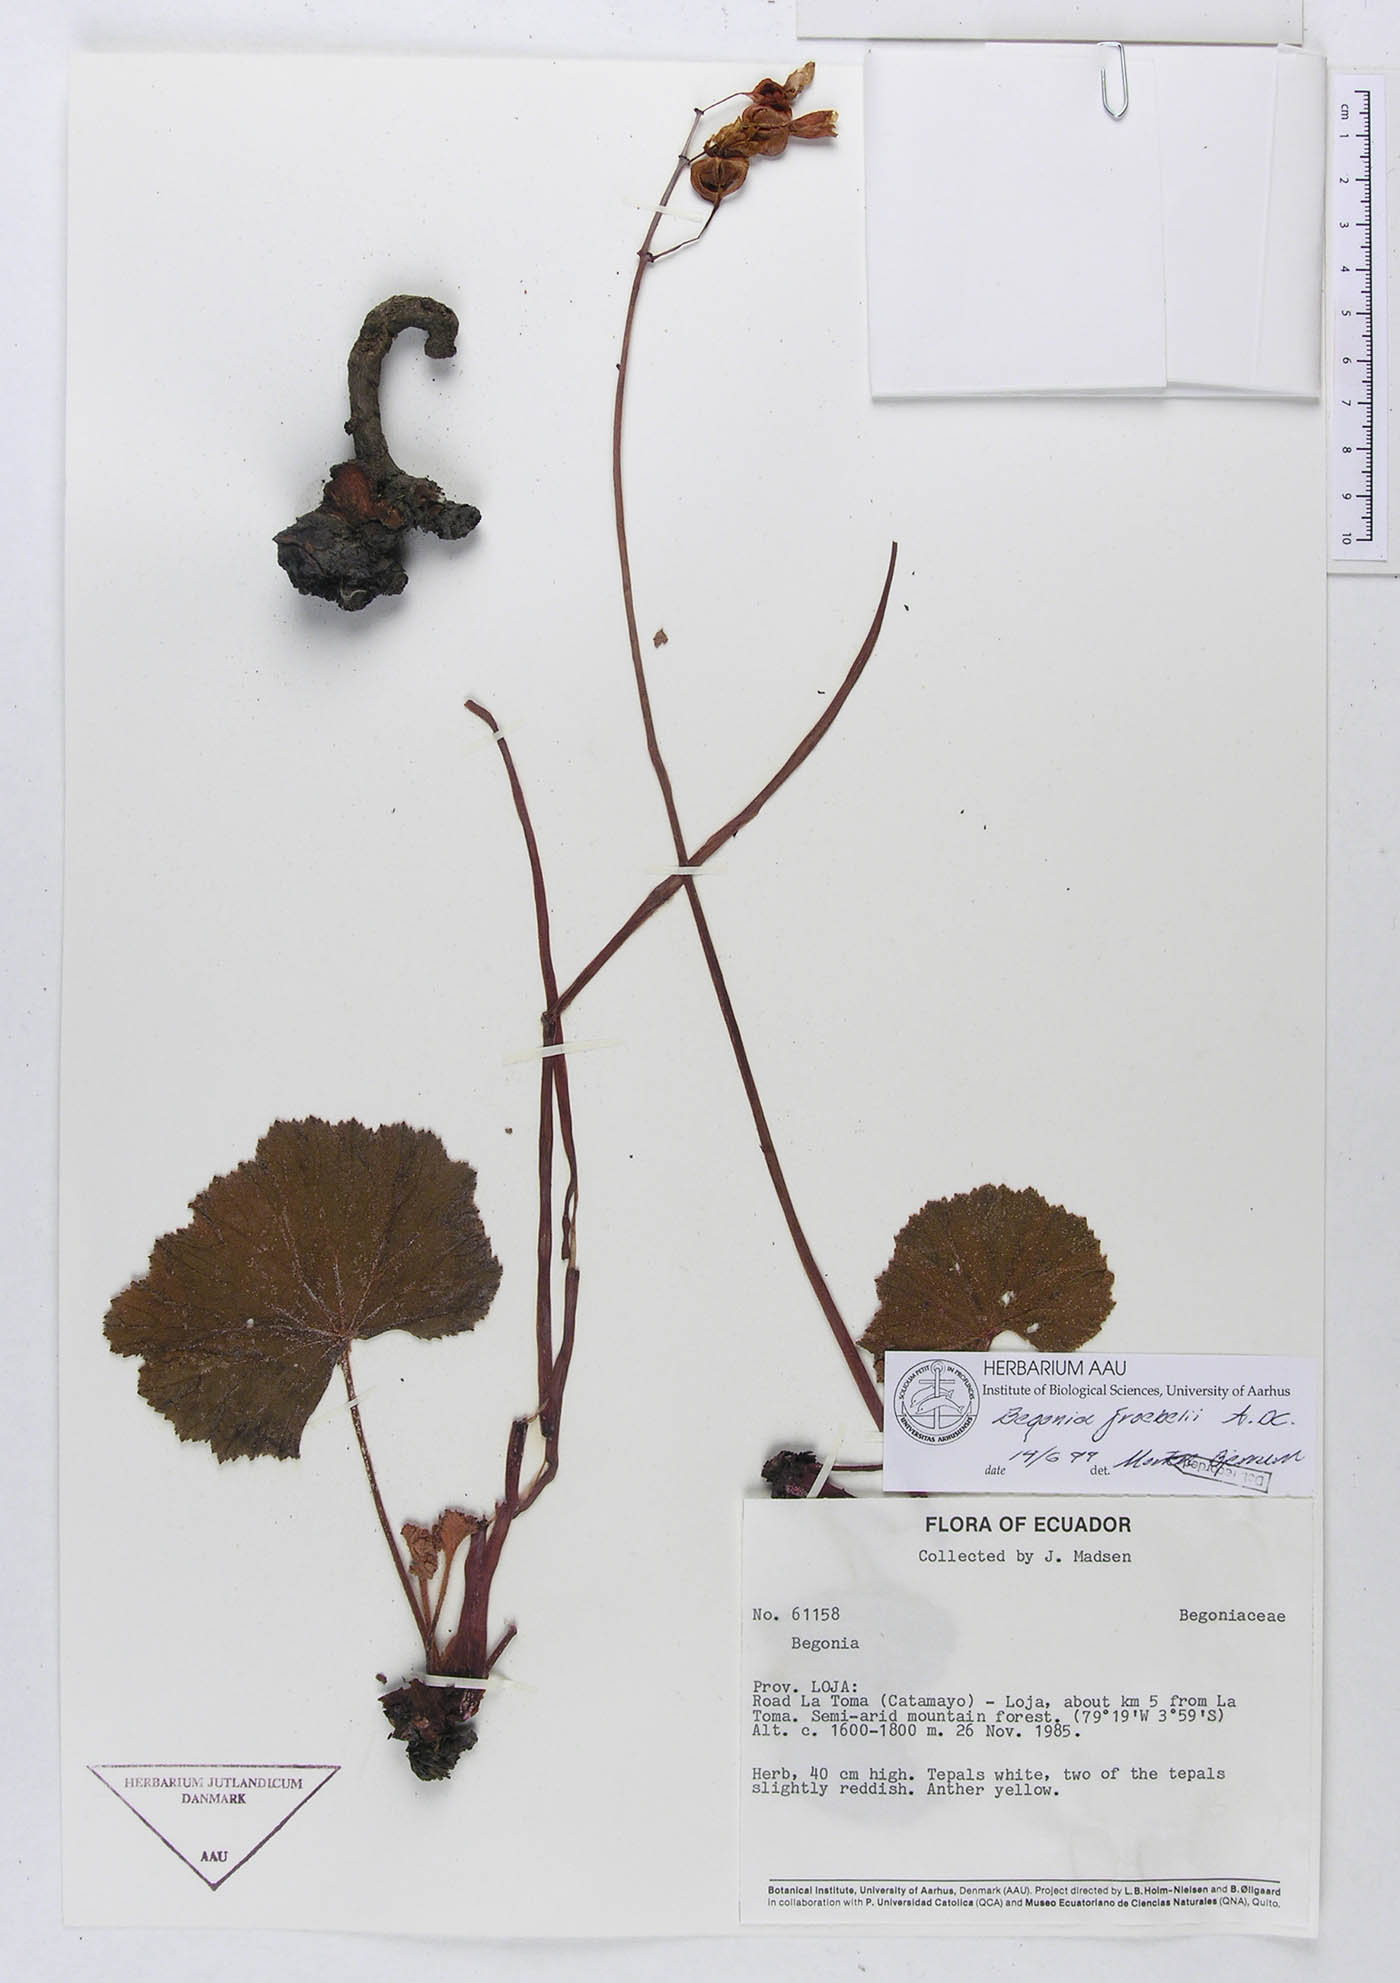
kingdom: Plantae
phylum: Tracheophyta
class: Magnoliopsida
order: Cucurbitales
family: Begoniaceae
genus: Begonia
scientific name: Begonia parcifolia
